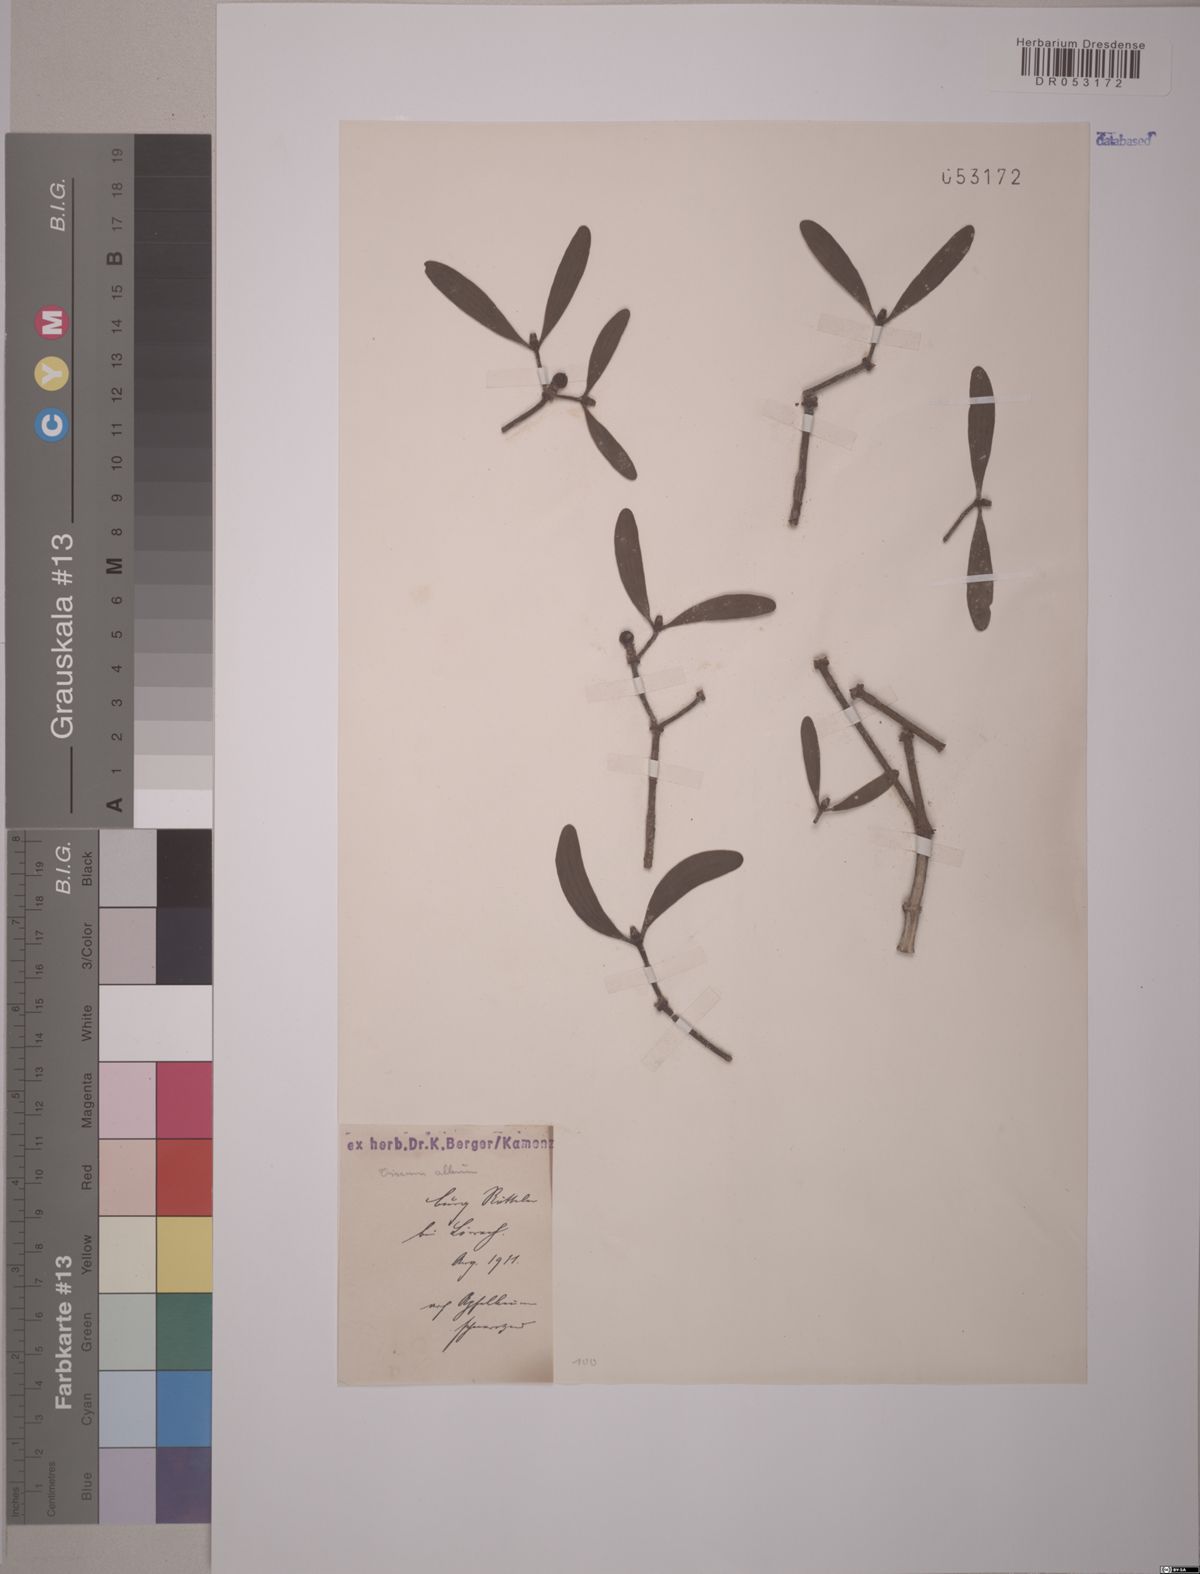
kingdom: Plantae
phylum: Tracheophyta
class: Magnoliopsida
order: Santalales
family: Viscaceae
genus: Viscum
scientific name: Viscum album
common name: Mistletoe
